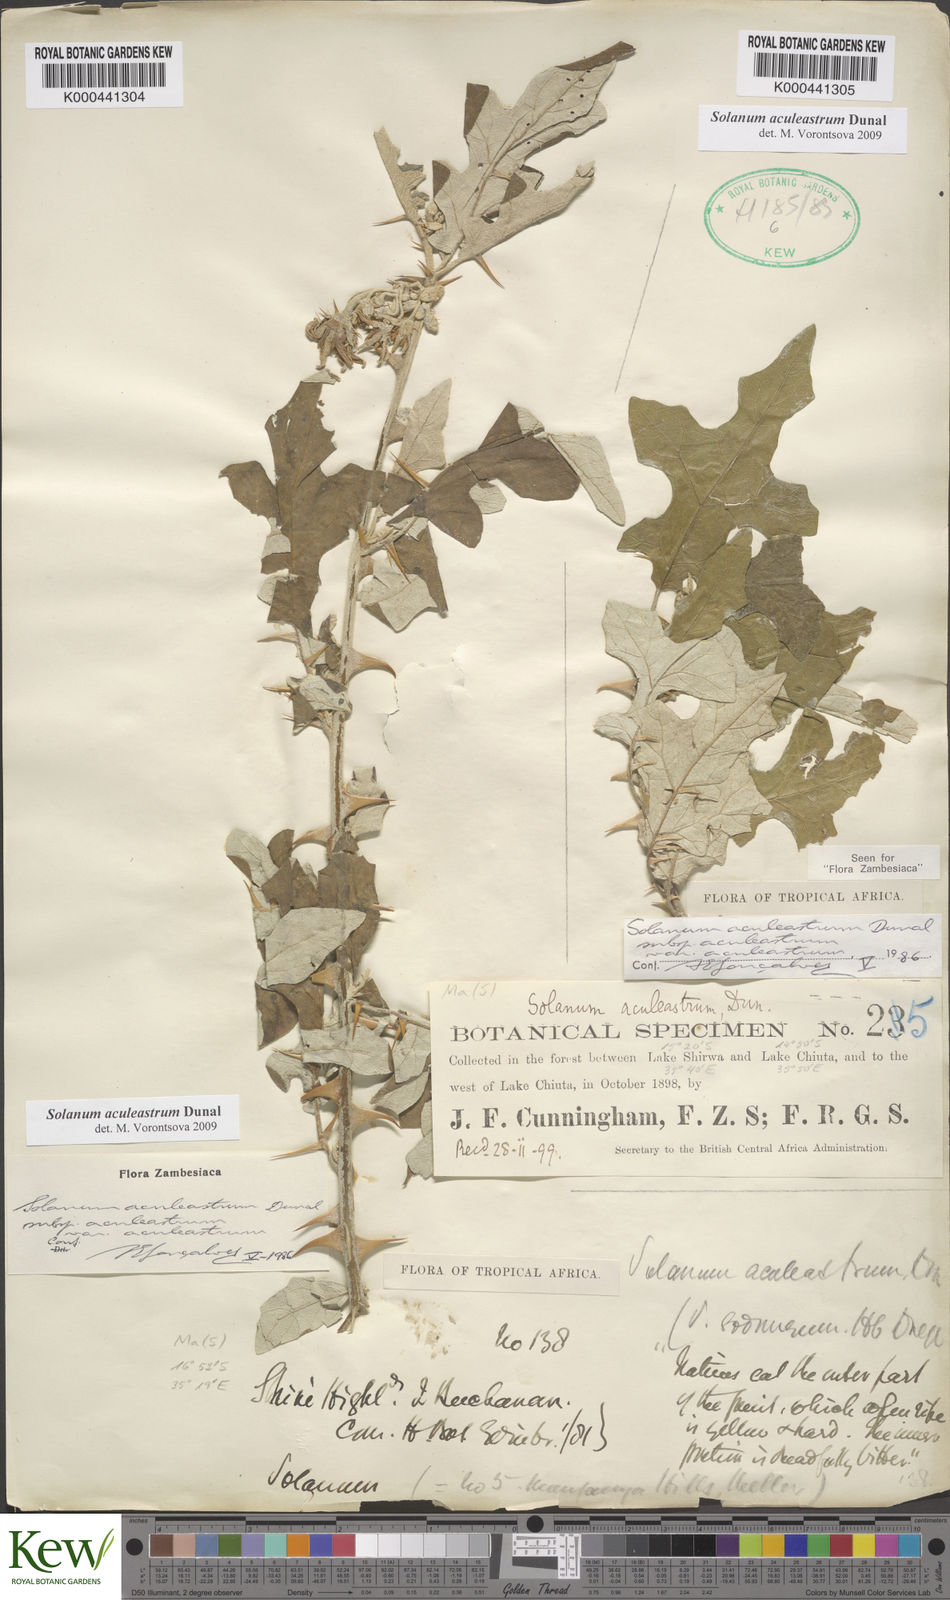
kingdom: Plantae
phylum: Tracheophyta
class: Magnoliopsida
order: Solanales
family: Solanaceae
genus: Solanum
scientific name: Solanum aculeastrum
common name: Goat bitter-apple
